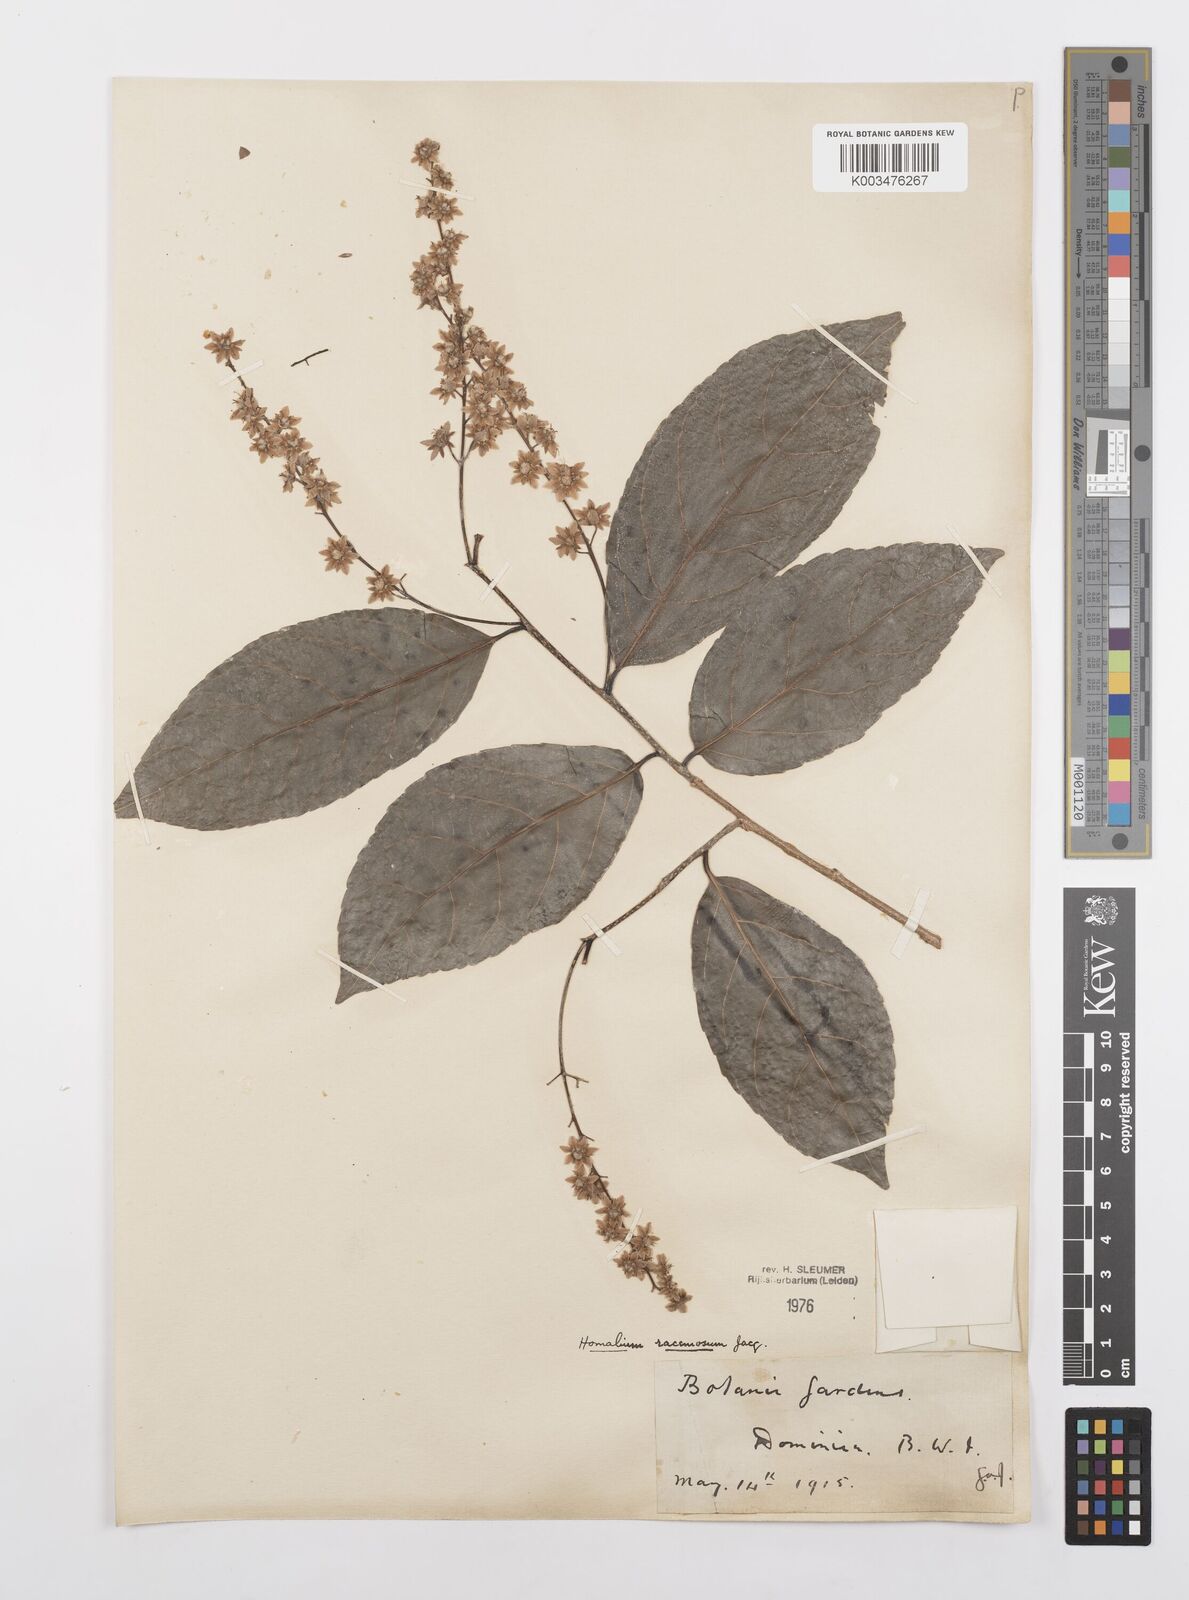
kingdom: Plantae
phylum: Tracheophyta
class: Magnoliopsida
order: Malpighiales
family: Salicaceae
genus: Homalium
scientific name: Homalium racemosum
